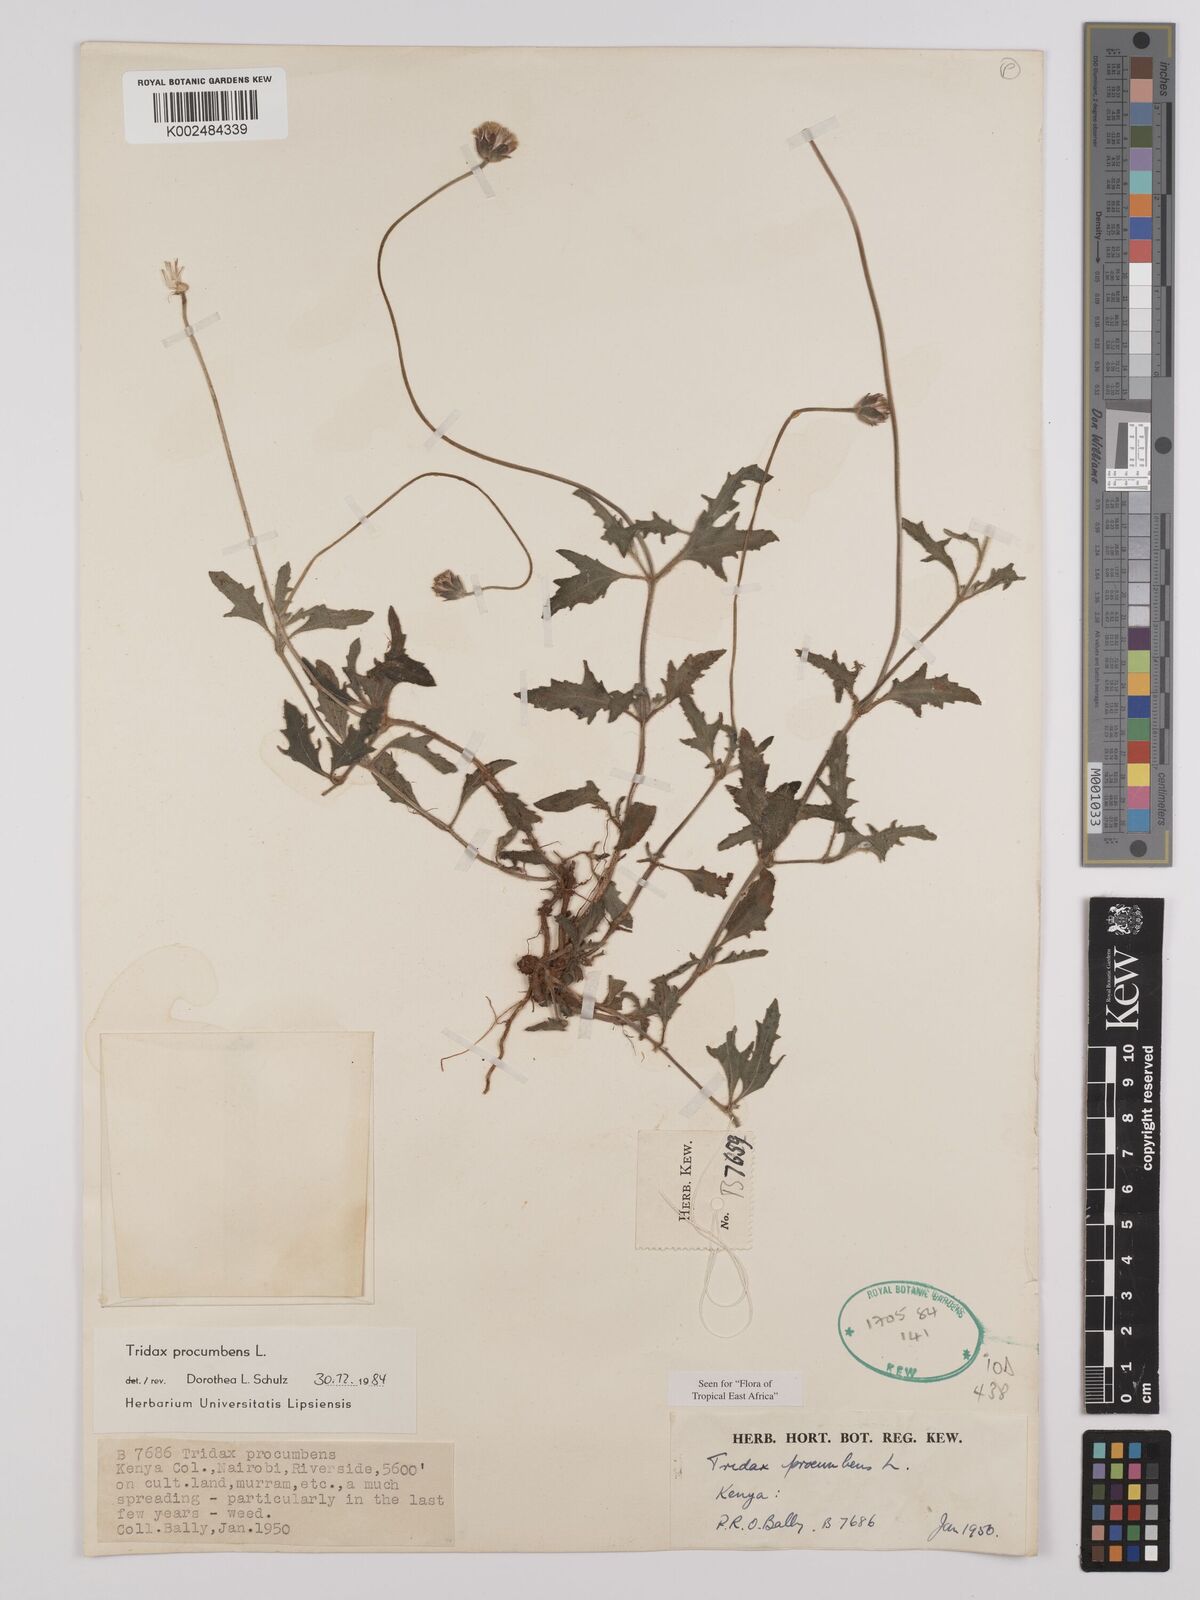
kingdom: Plantae
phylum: Tracheophyta
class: Magnoliopsida
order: Asterales
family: Asteraceae
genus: Tridax
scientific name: Tridax procumbens
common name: Coatbuttons
